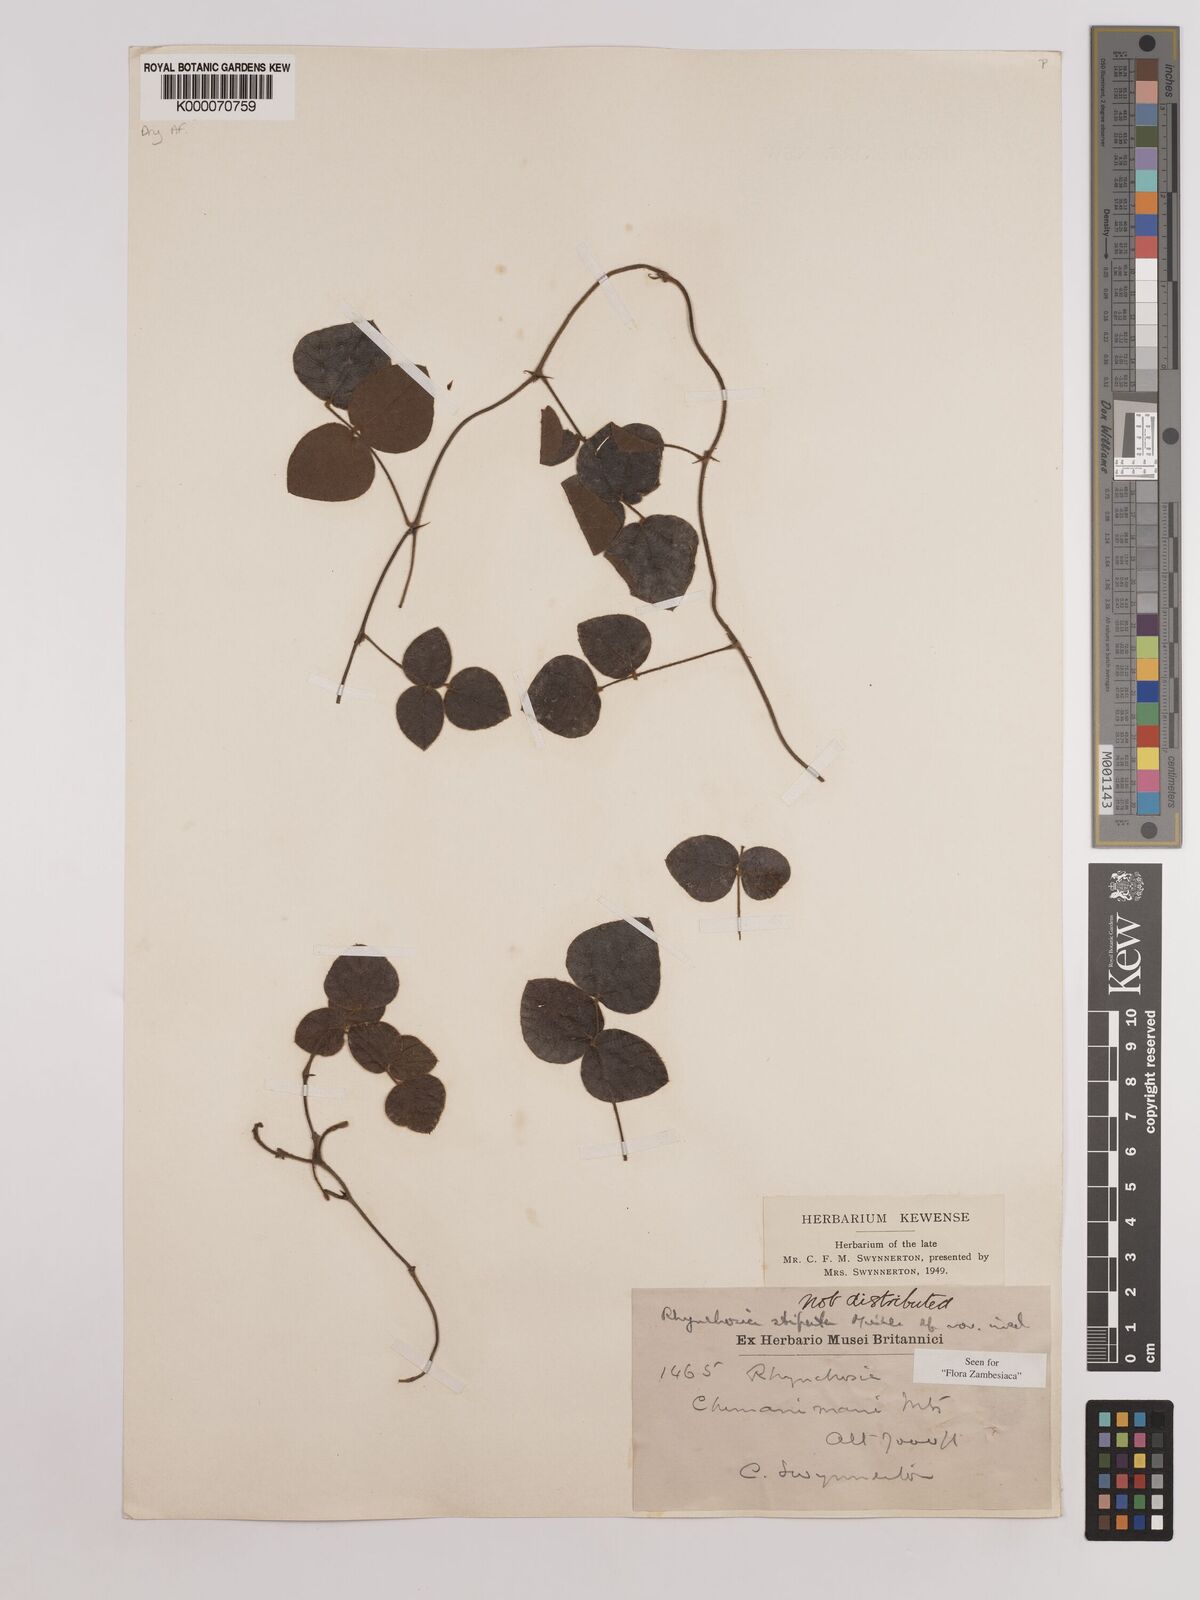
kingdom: Plantae
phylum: Tracheophyta
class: Magnoliopsida
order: Fabales
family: Fabaceae
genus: Rhynchosia
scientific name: Rhynchosia stipata
